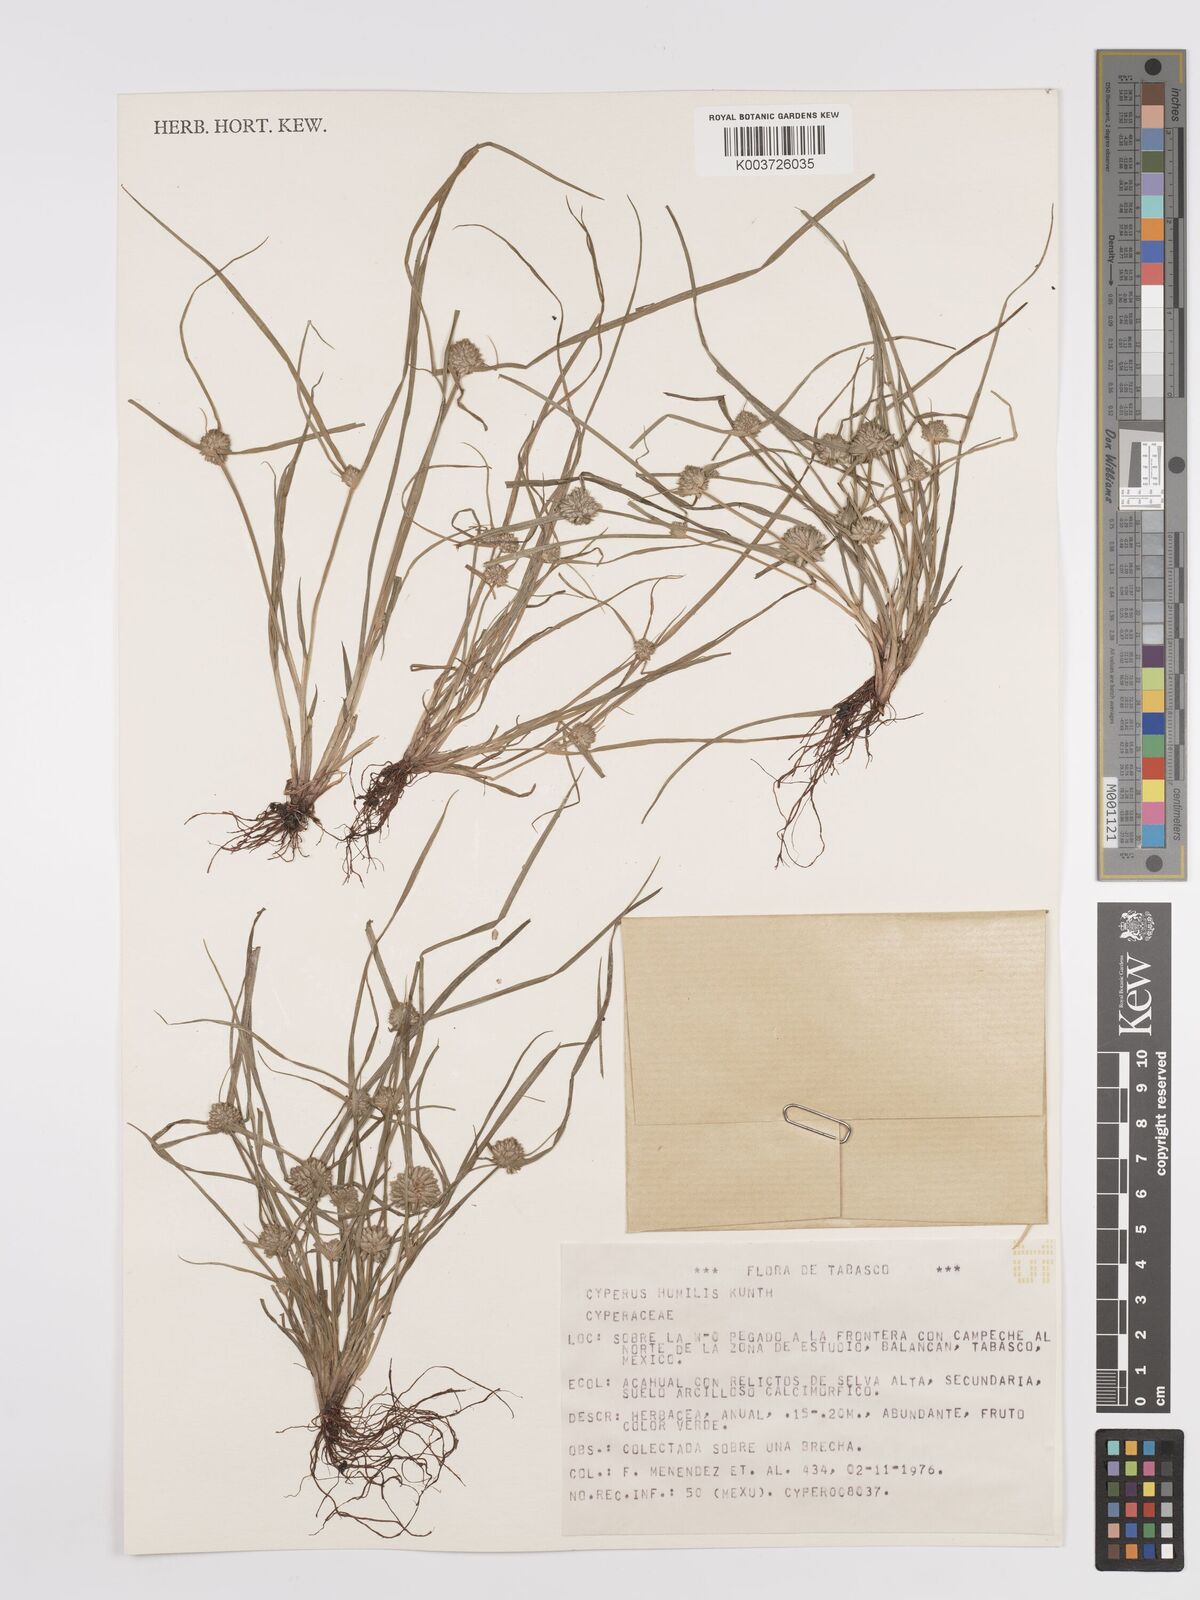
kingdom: Plantae
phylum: Tracheophyta
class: Liliopsida
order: Poales
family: Cyperaceae
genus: Cyperus
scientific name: Cyperus humilis
